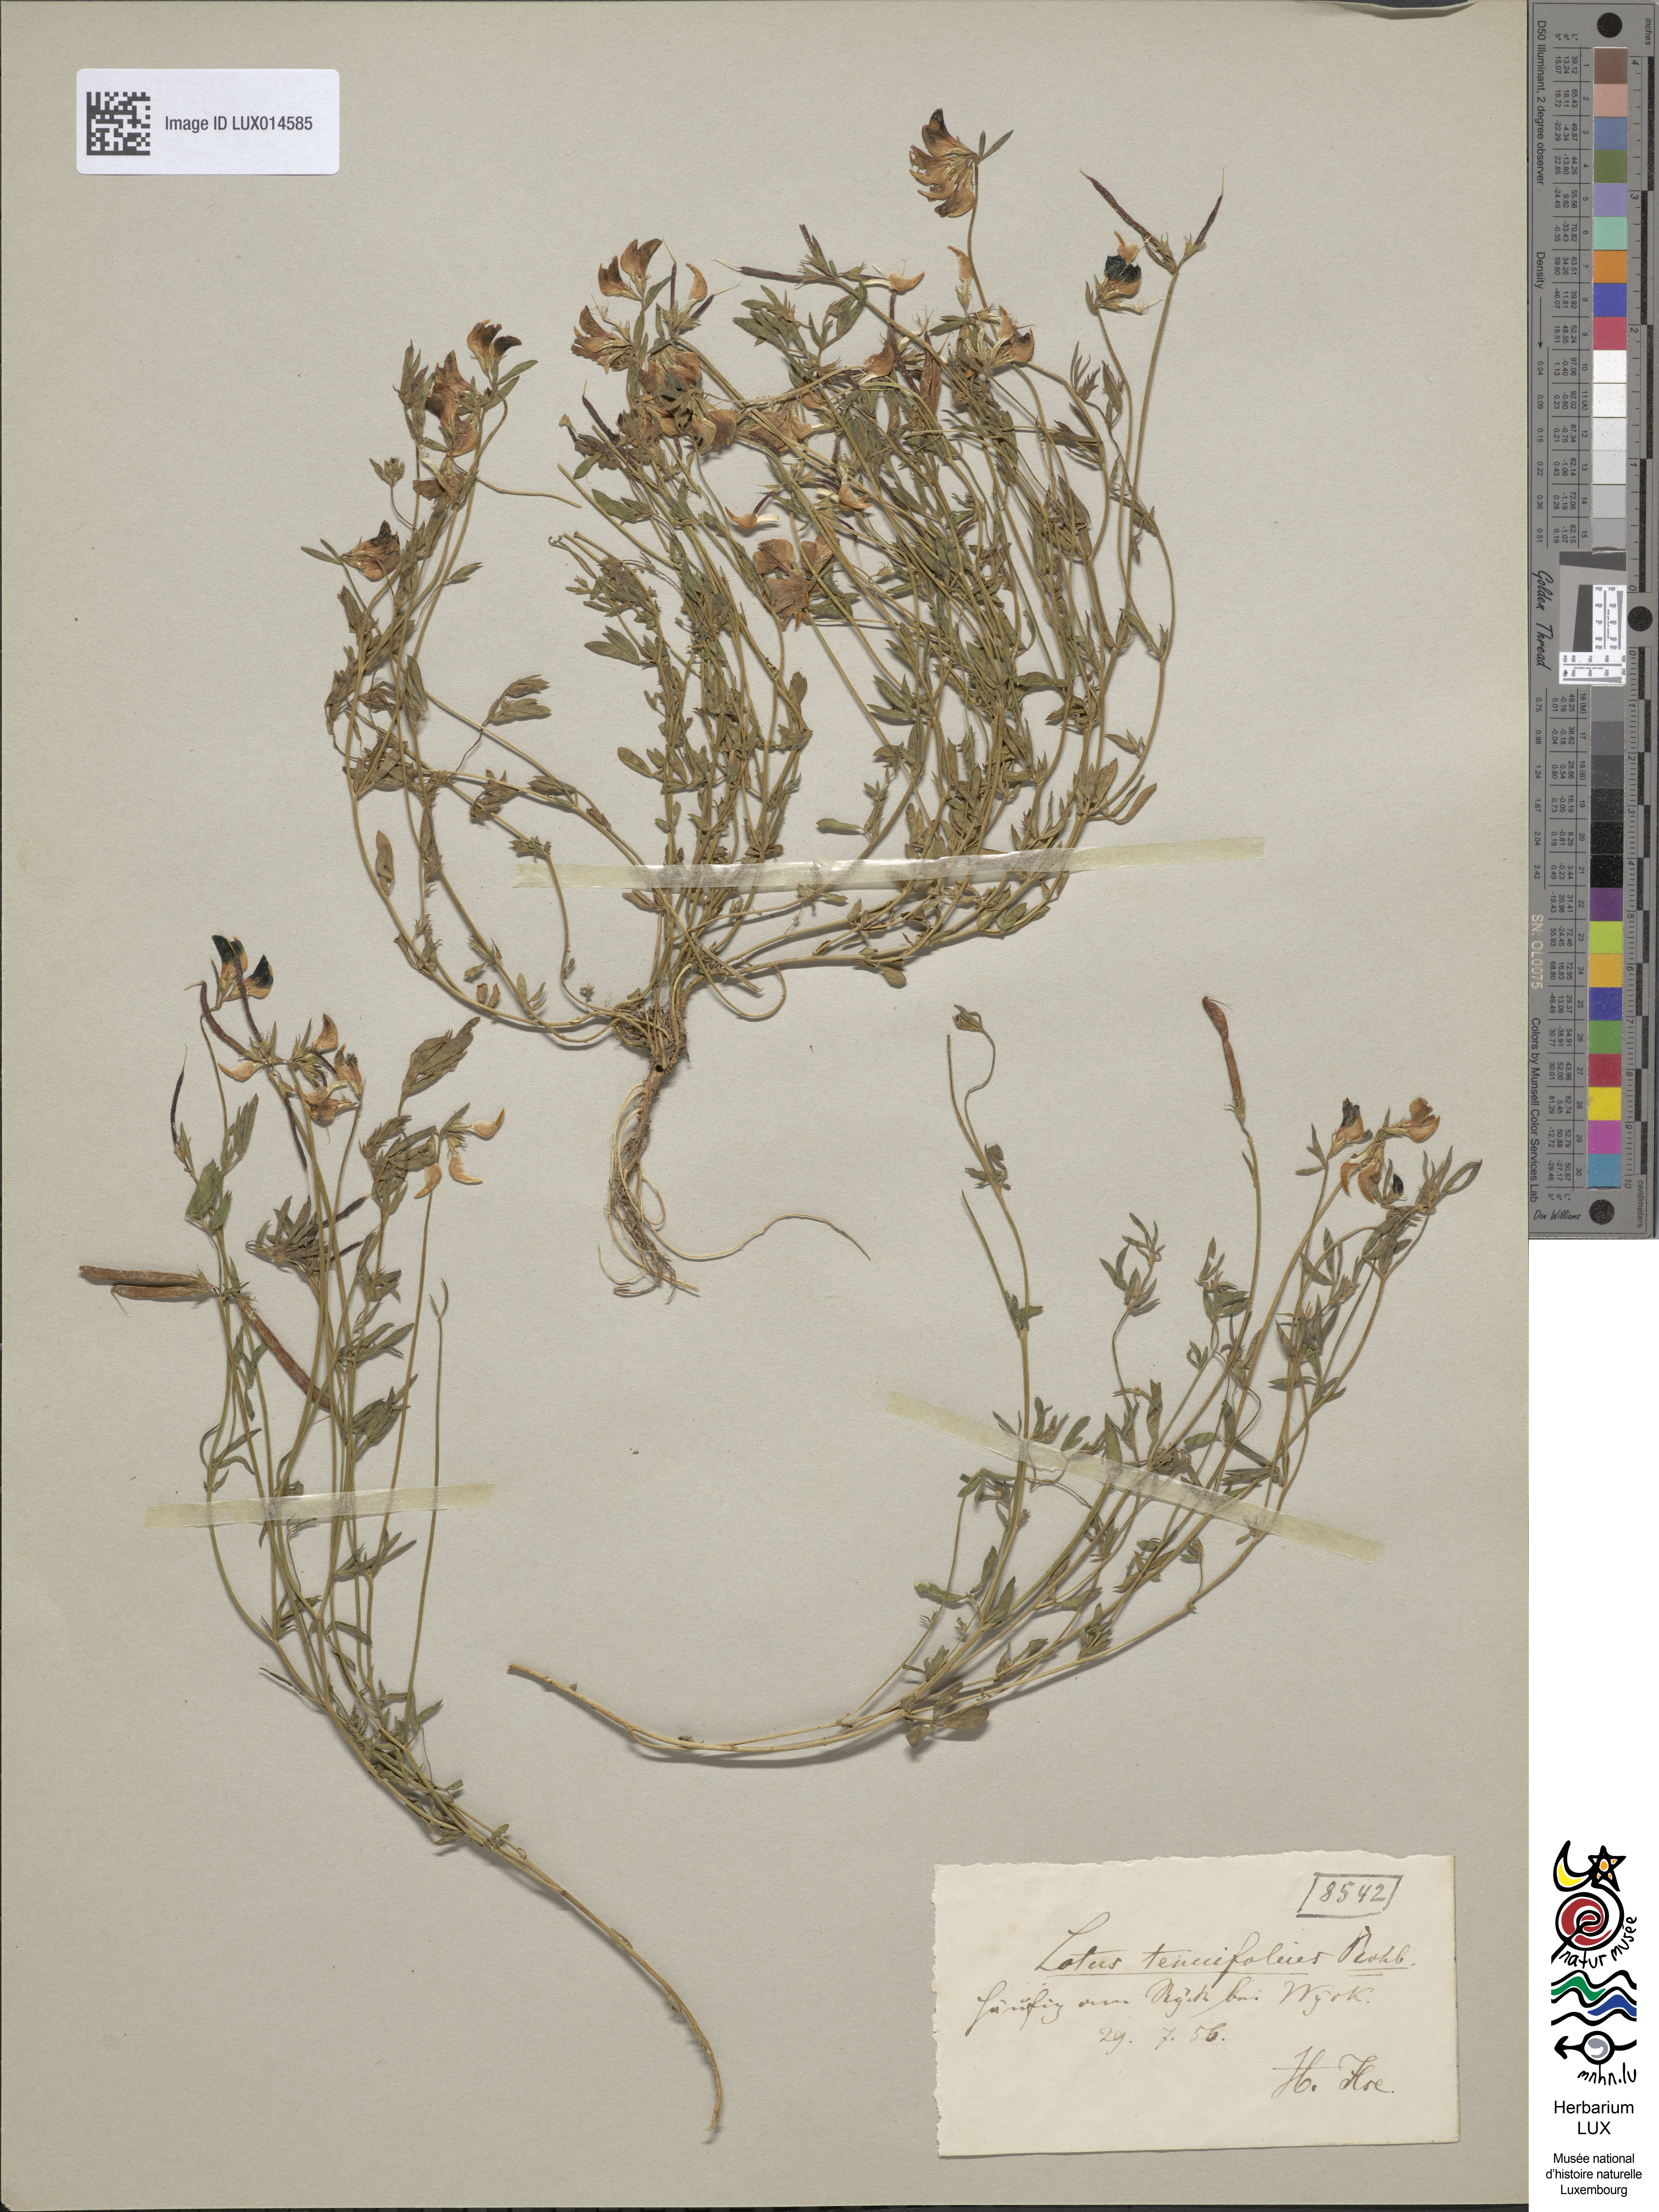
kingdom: Plantae
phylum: Tracheophyta
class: Magnoliopsida
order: Fabales
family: Fabaceae
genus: Lotus
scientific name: Lotus tenuis
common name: Narrow-leaved bird's-foot-trefoil
